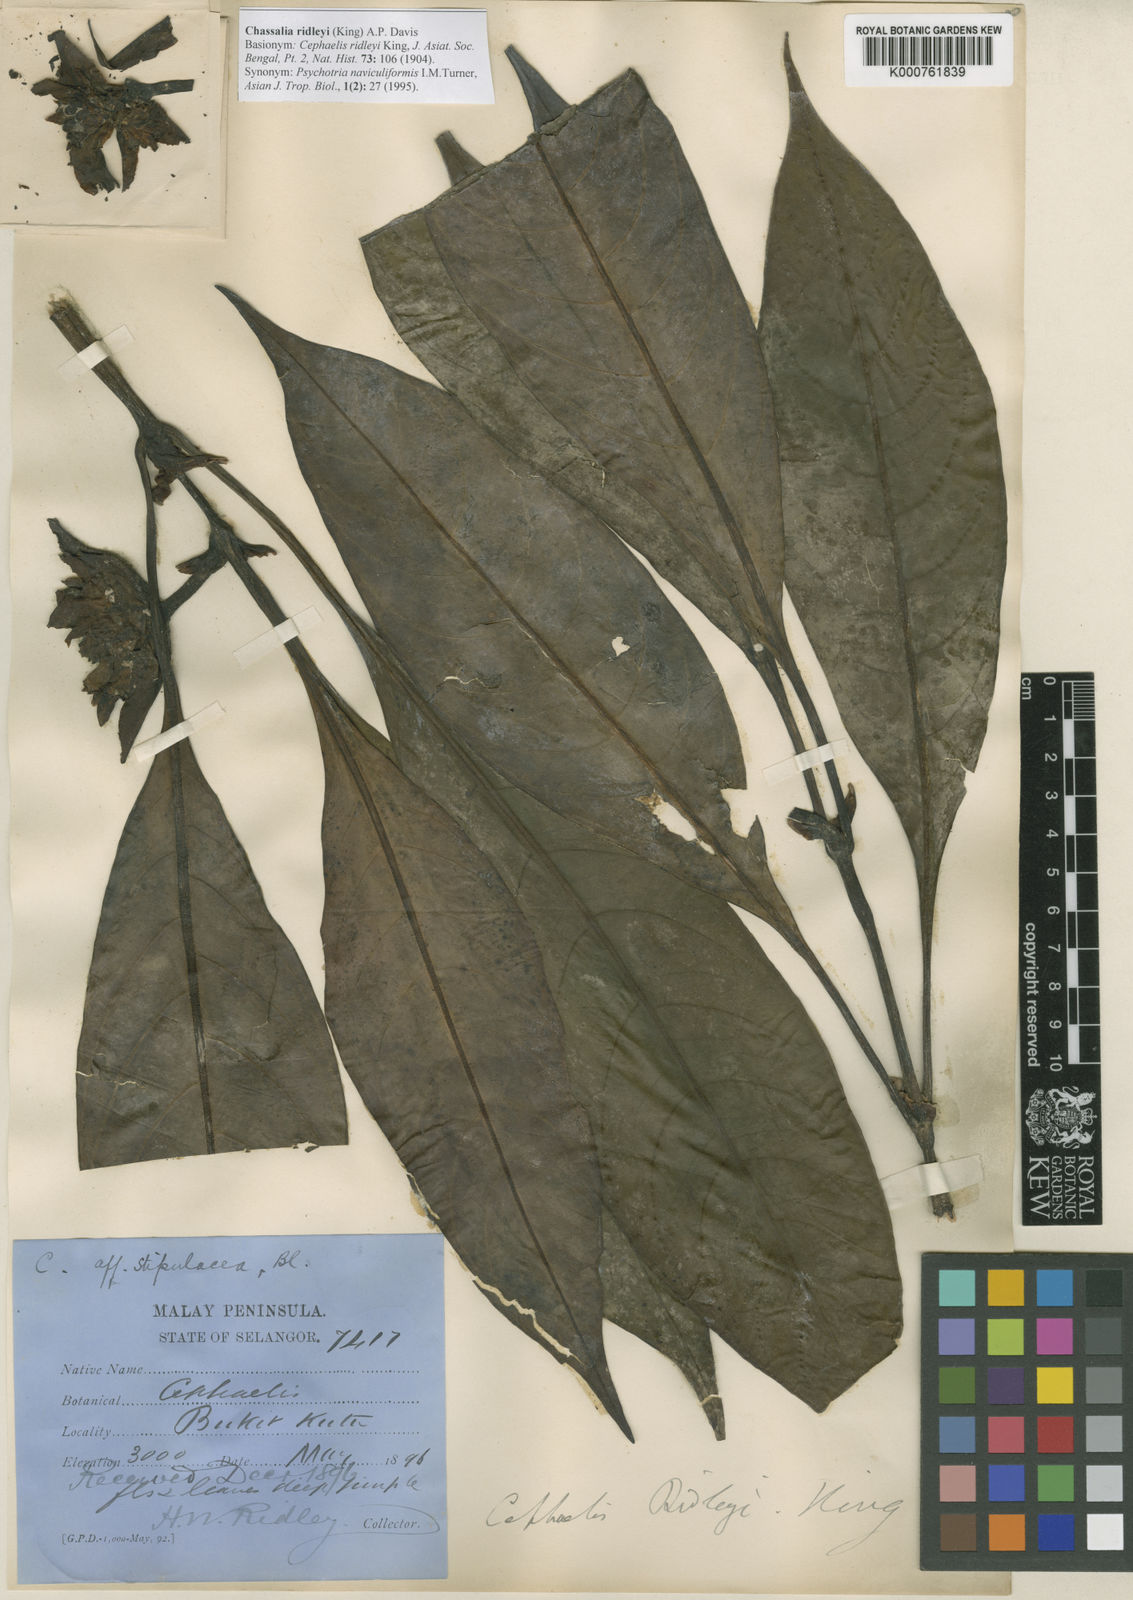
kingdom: Plantae
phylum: Tracheophyta
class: Magnoliopsida
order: Gentianales
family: Rubiaceae
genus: Chassalia
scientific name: Chassalia ridleyi
